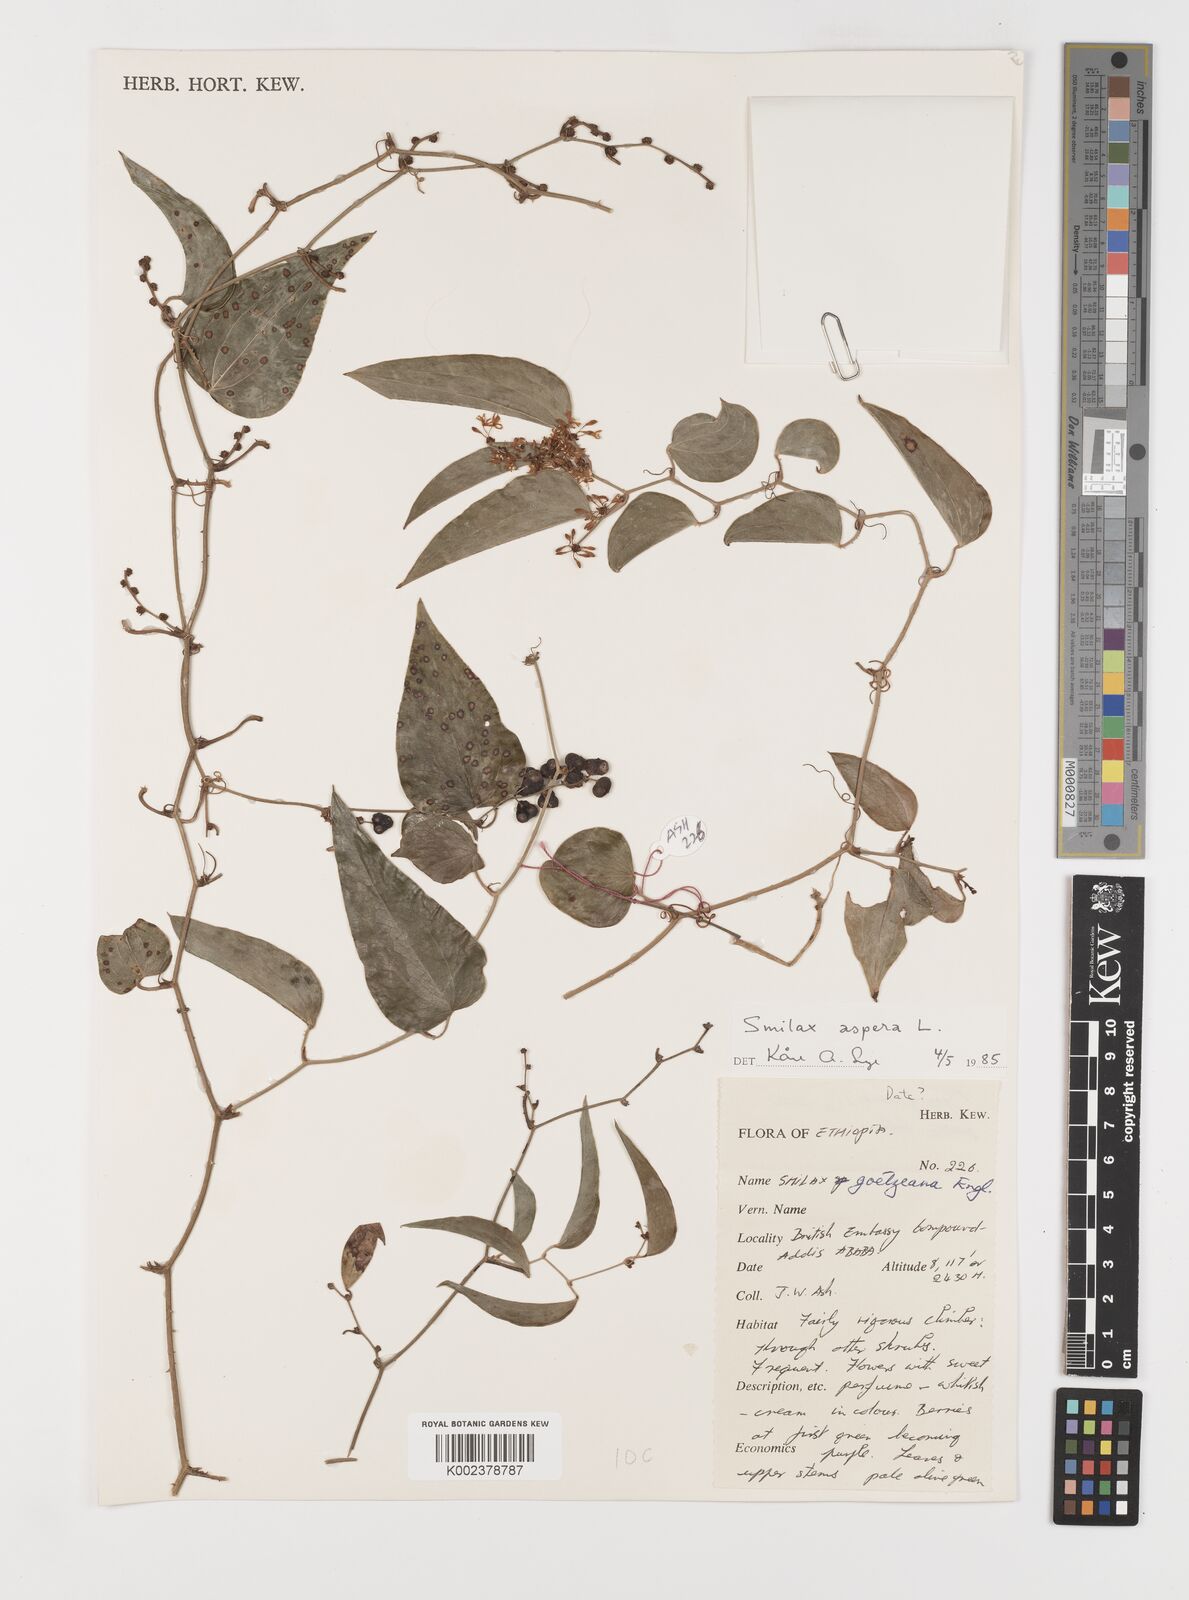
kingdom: Plantae
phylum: Tracheophyta
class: Liliopsida
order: Liliales
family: Smilacaceae
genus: Smilax
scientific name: Smilax aspera
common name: Common smilax
